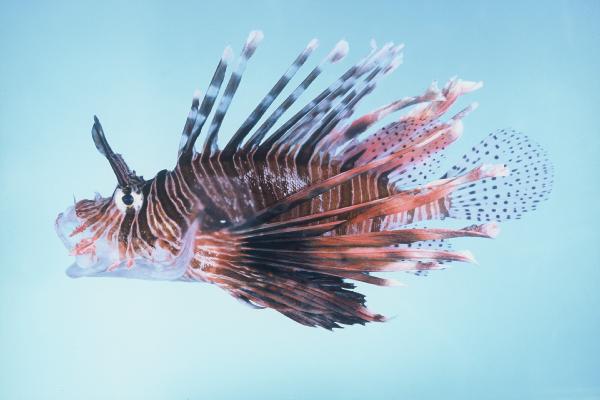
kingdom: Animalia
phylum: Chordata
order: Scorpaeniformes
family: Scorpaenidae
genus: Pterois
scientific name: Pterois miles
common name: Devil firefish
